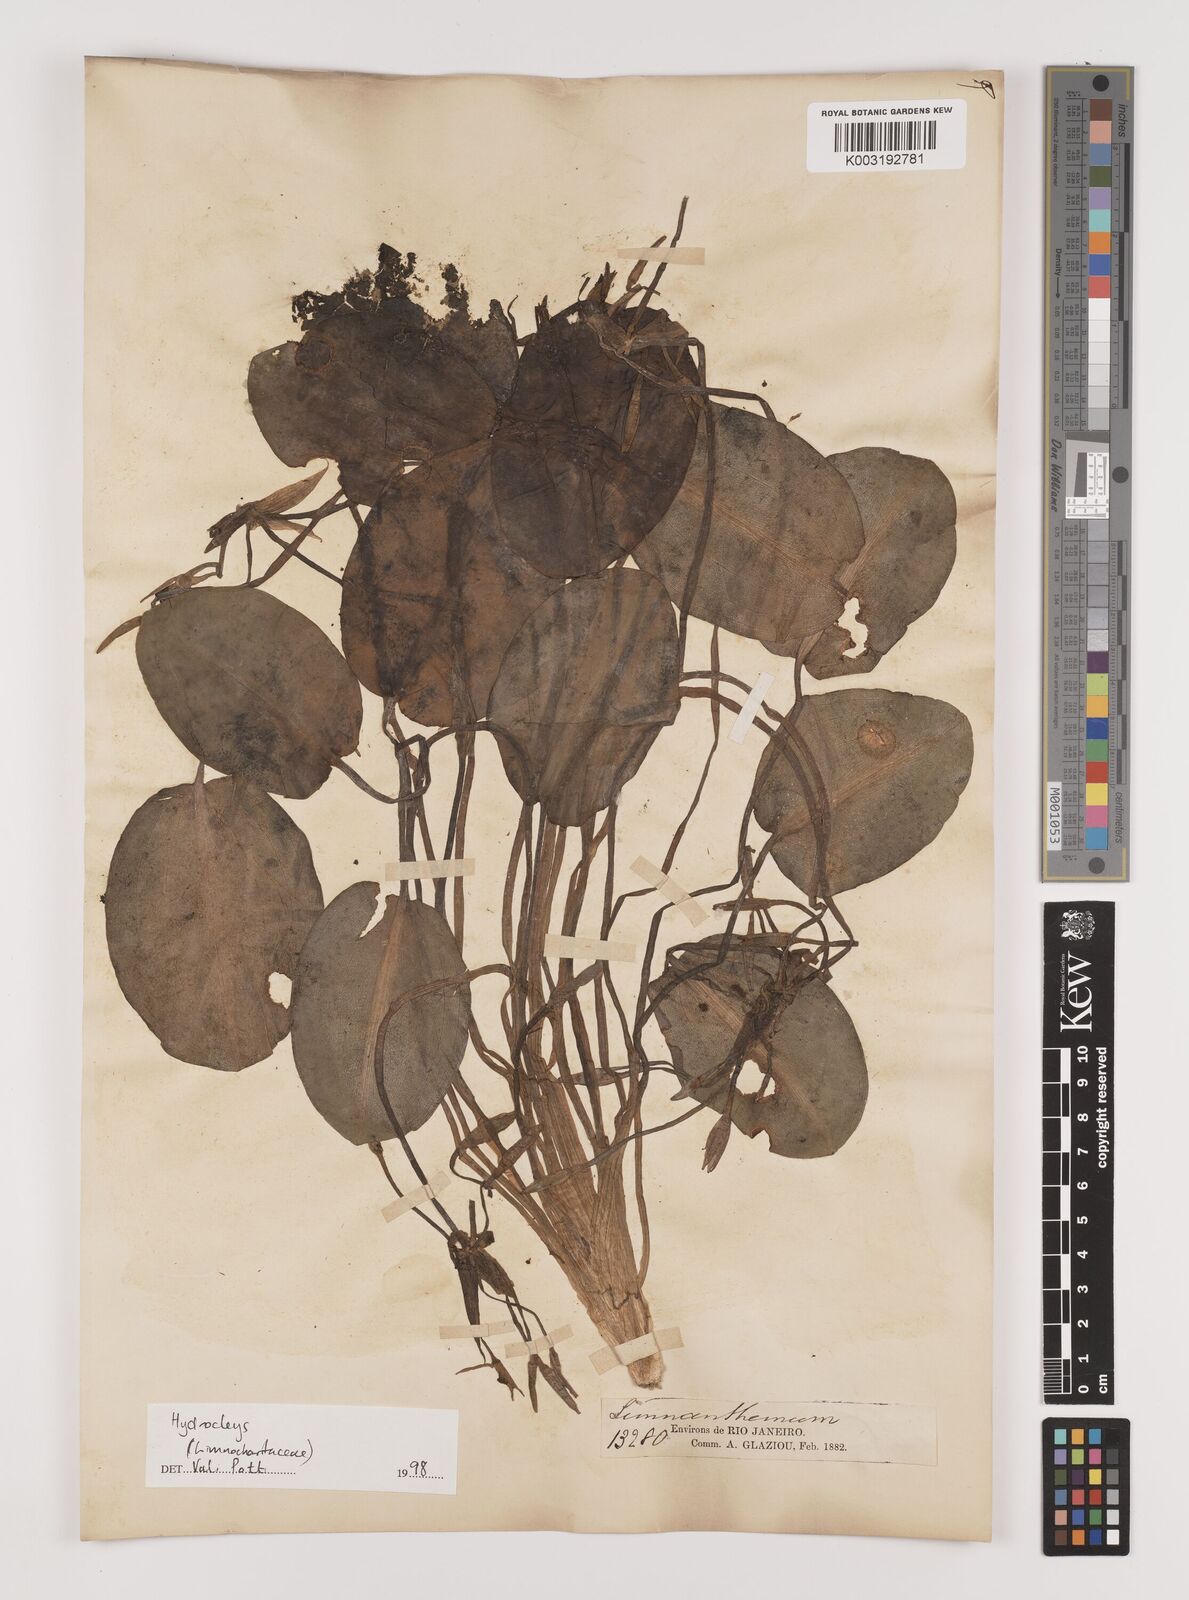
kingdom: Plantae
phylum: Tracheophyta
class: Liliopsida
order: Alismatales
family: Alismataceae
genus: Hydrocleys
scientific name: Hydrocleys
